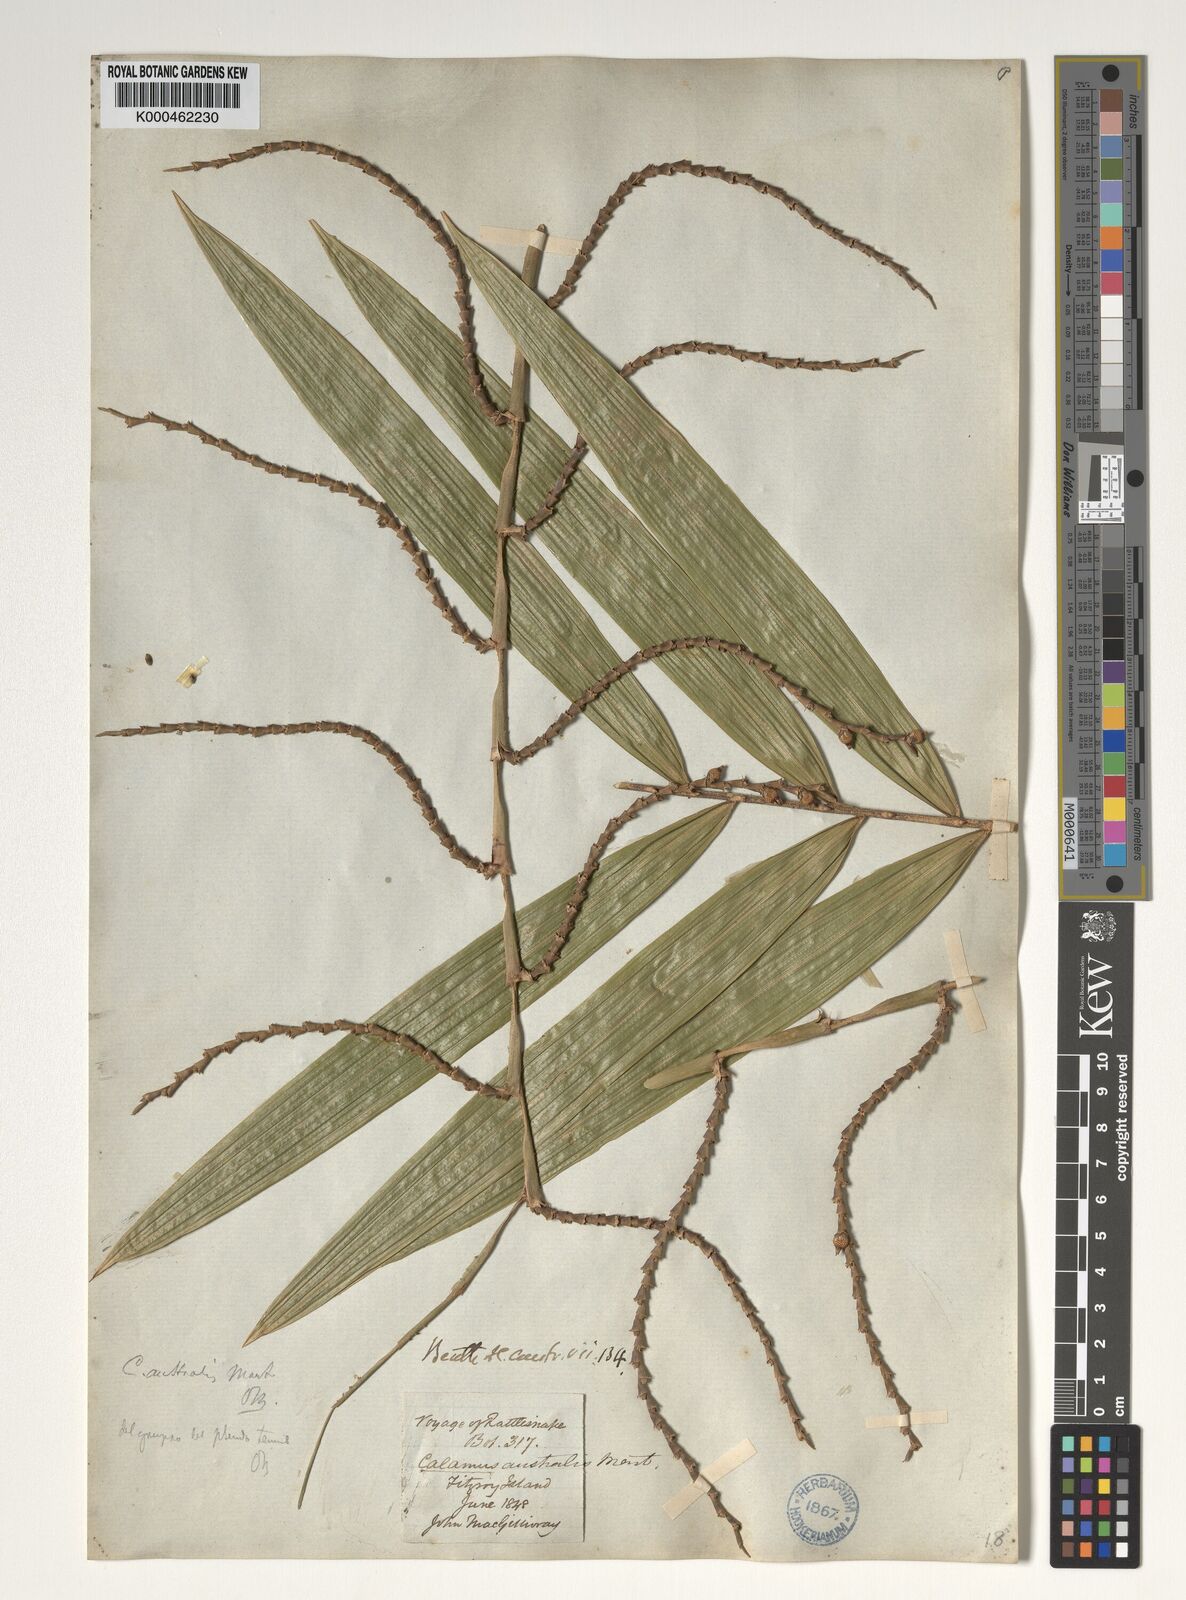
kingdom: Plantae
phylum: Tracheophyta
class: Liliopsida
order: Arecales
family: Arecaceae
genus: Calamus
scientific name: Calamus australis
